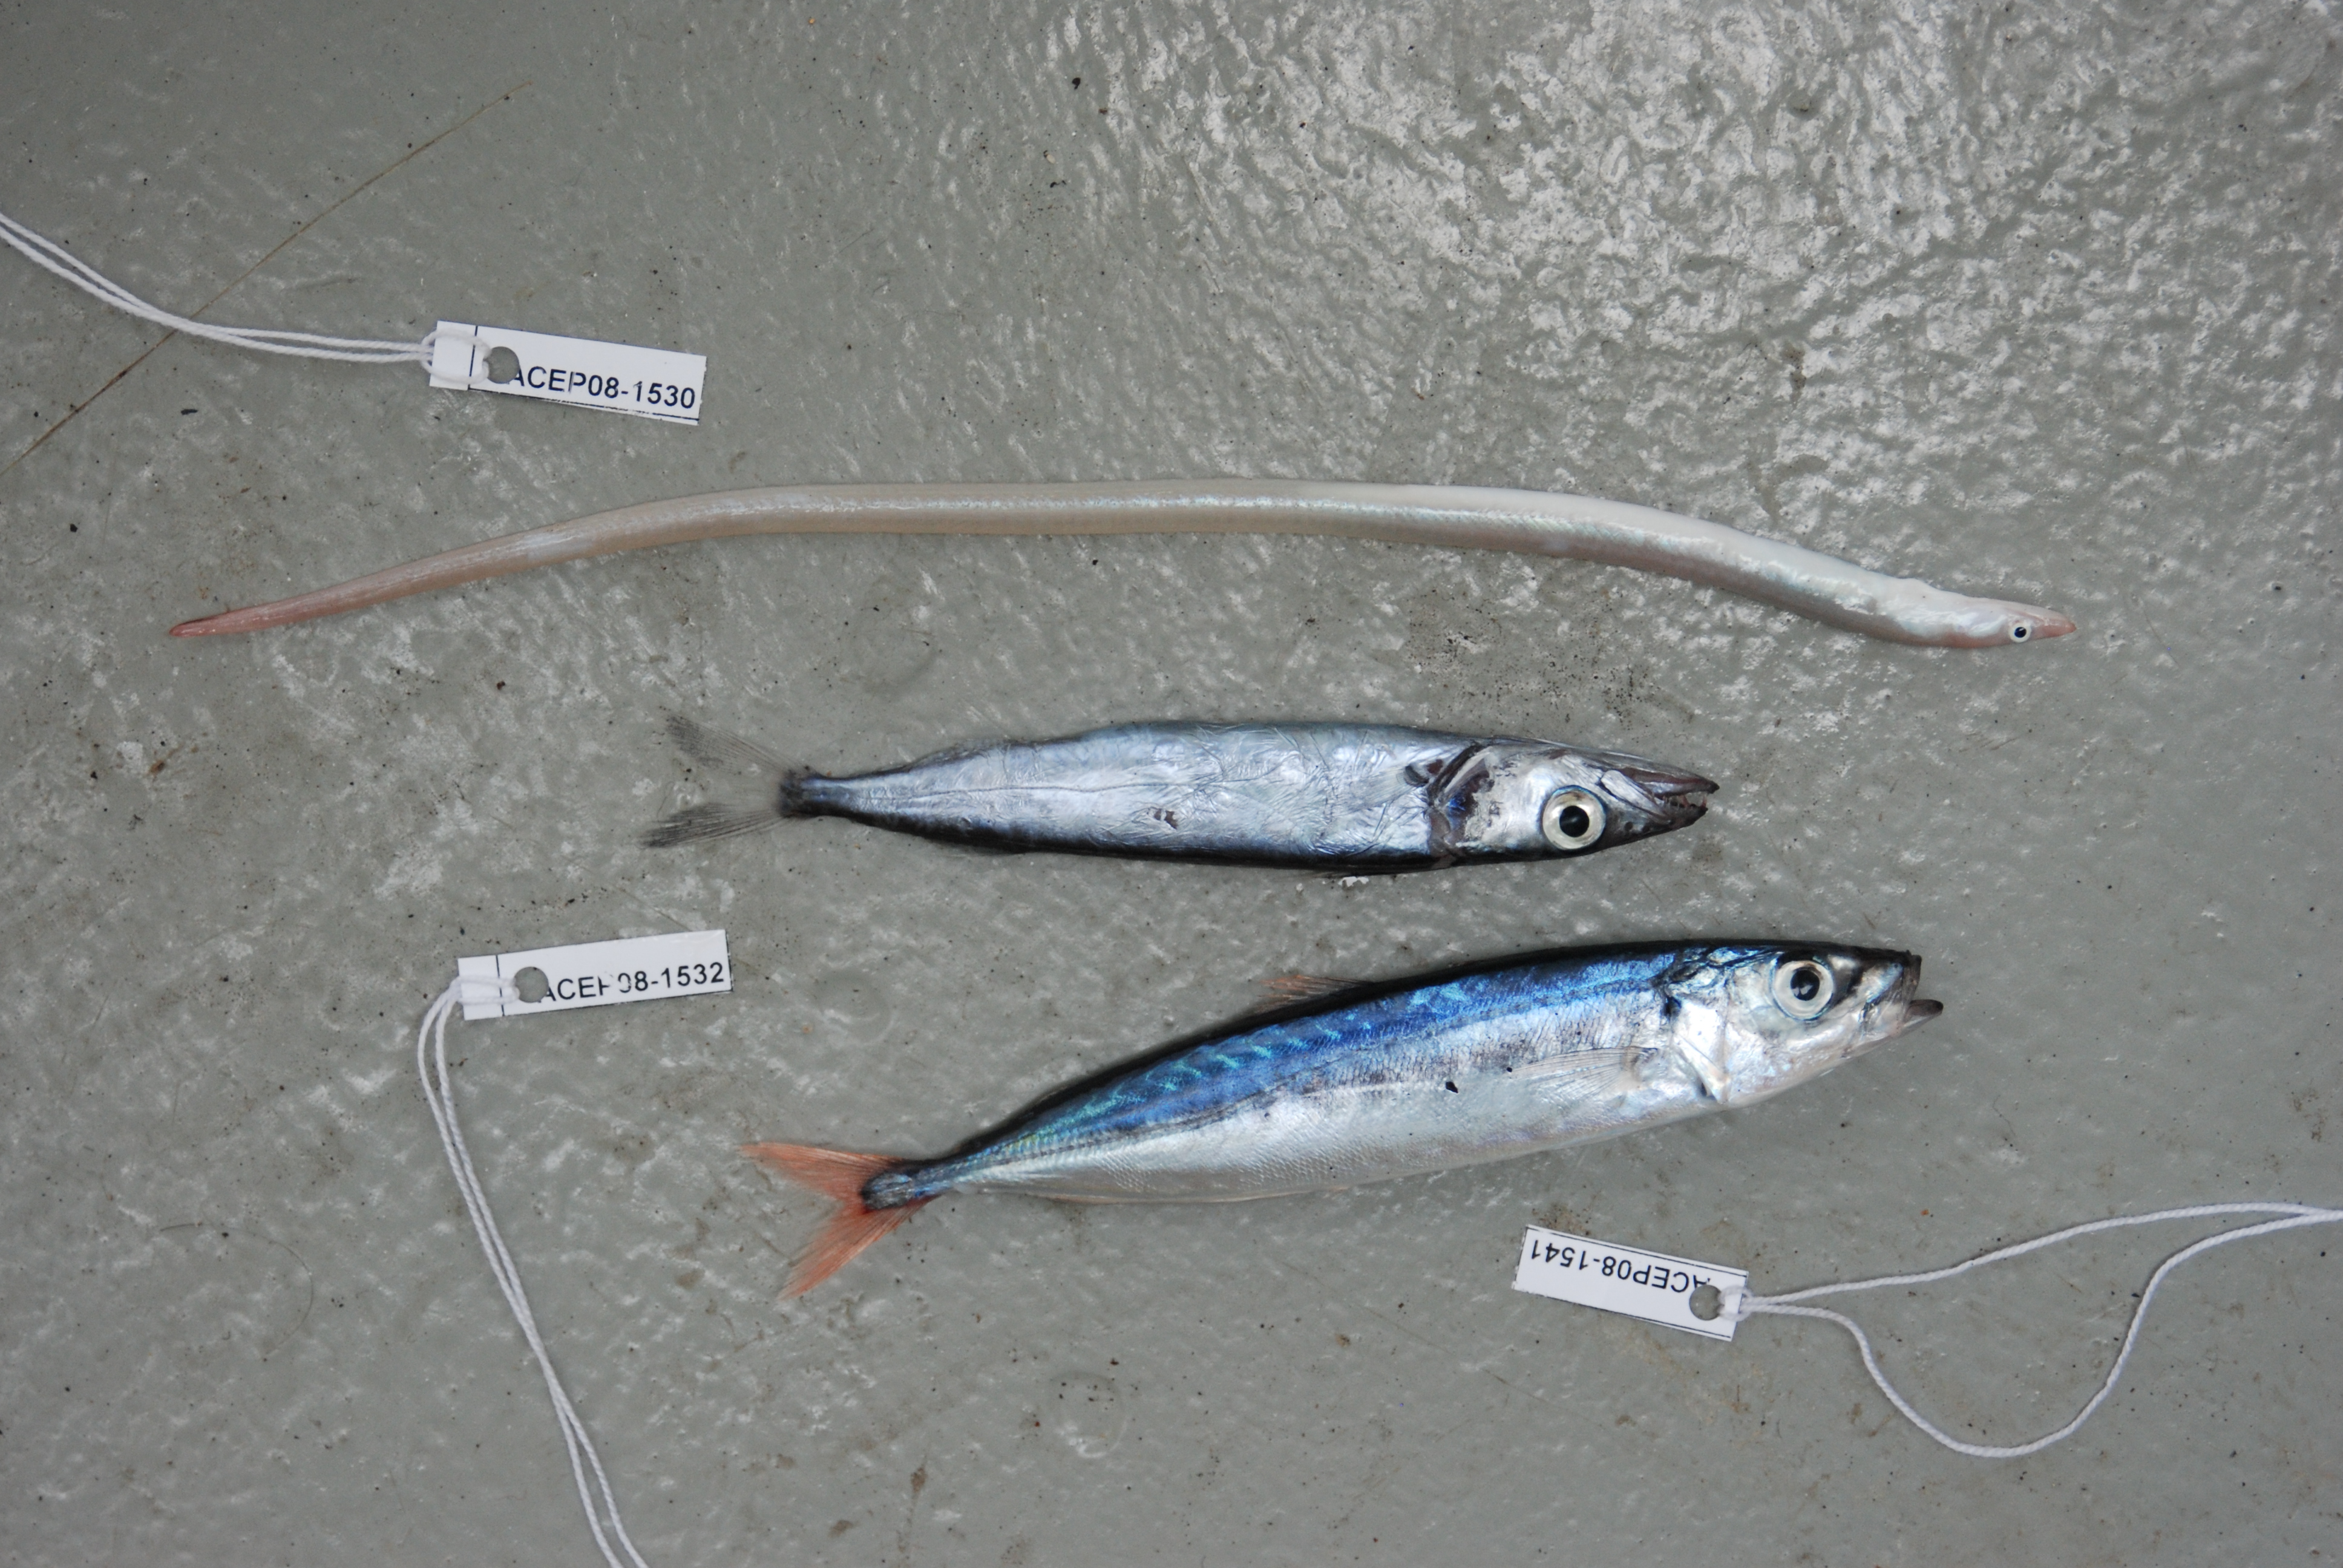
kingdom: Animalia
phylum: Chordata
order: Perciformes
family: Gempylidae
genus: Rexea
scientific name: Rexea prometheoides
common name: Royal escolar
